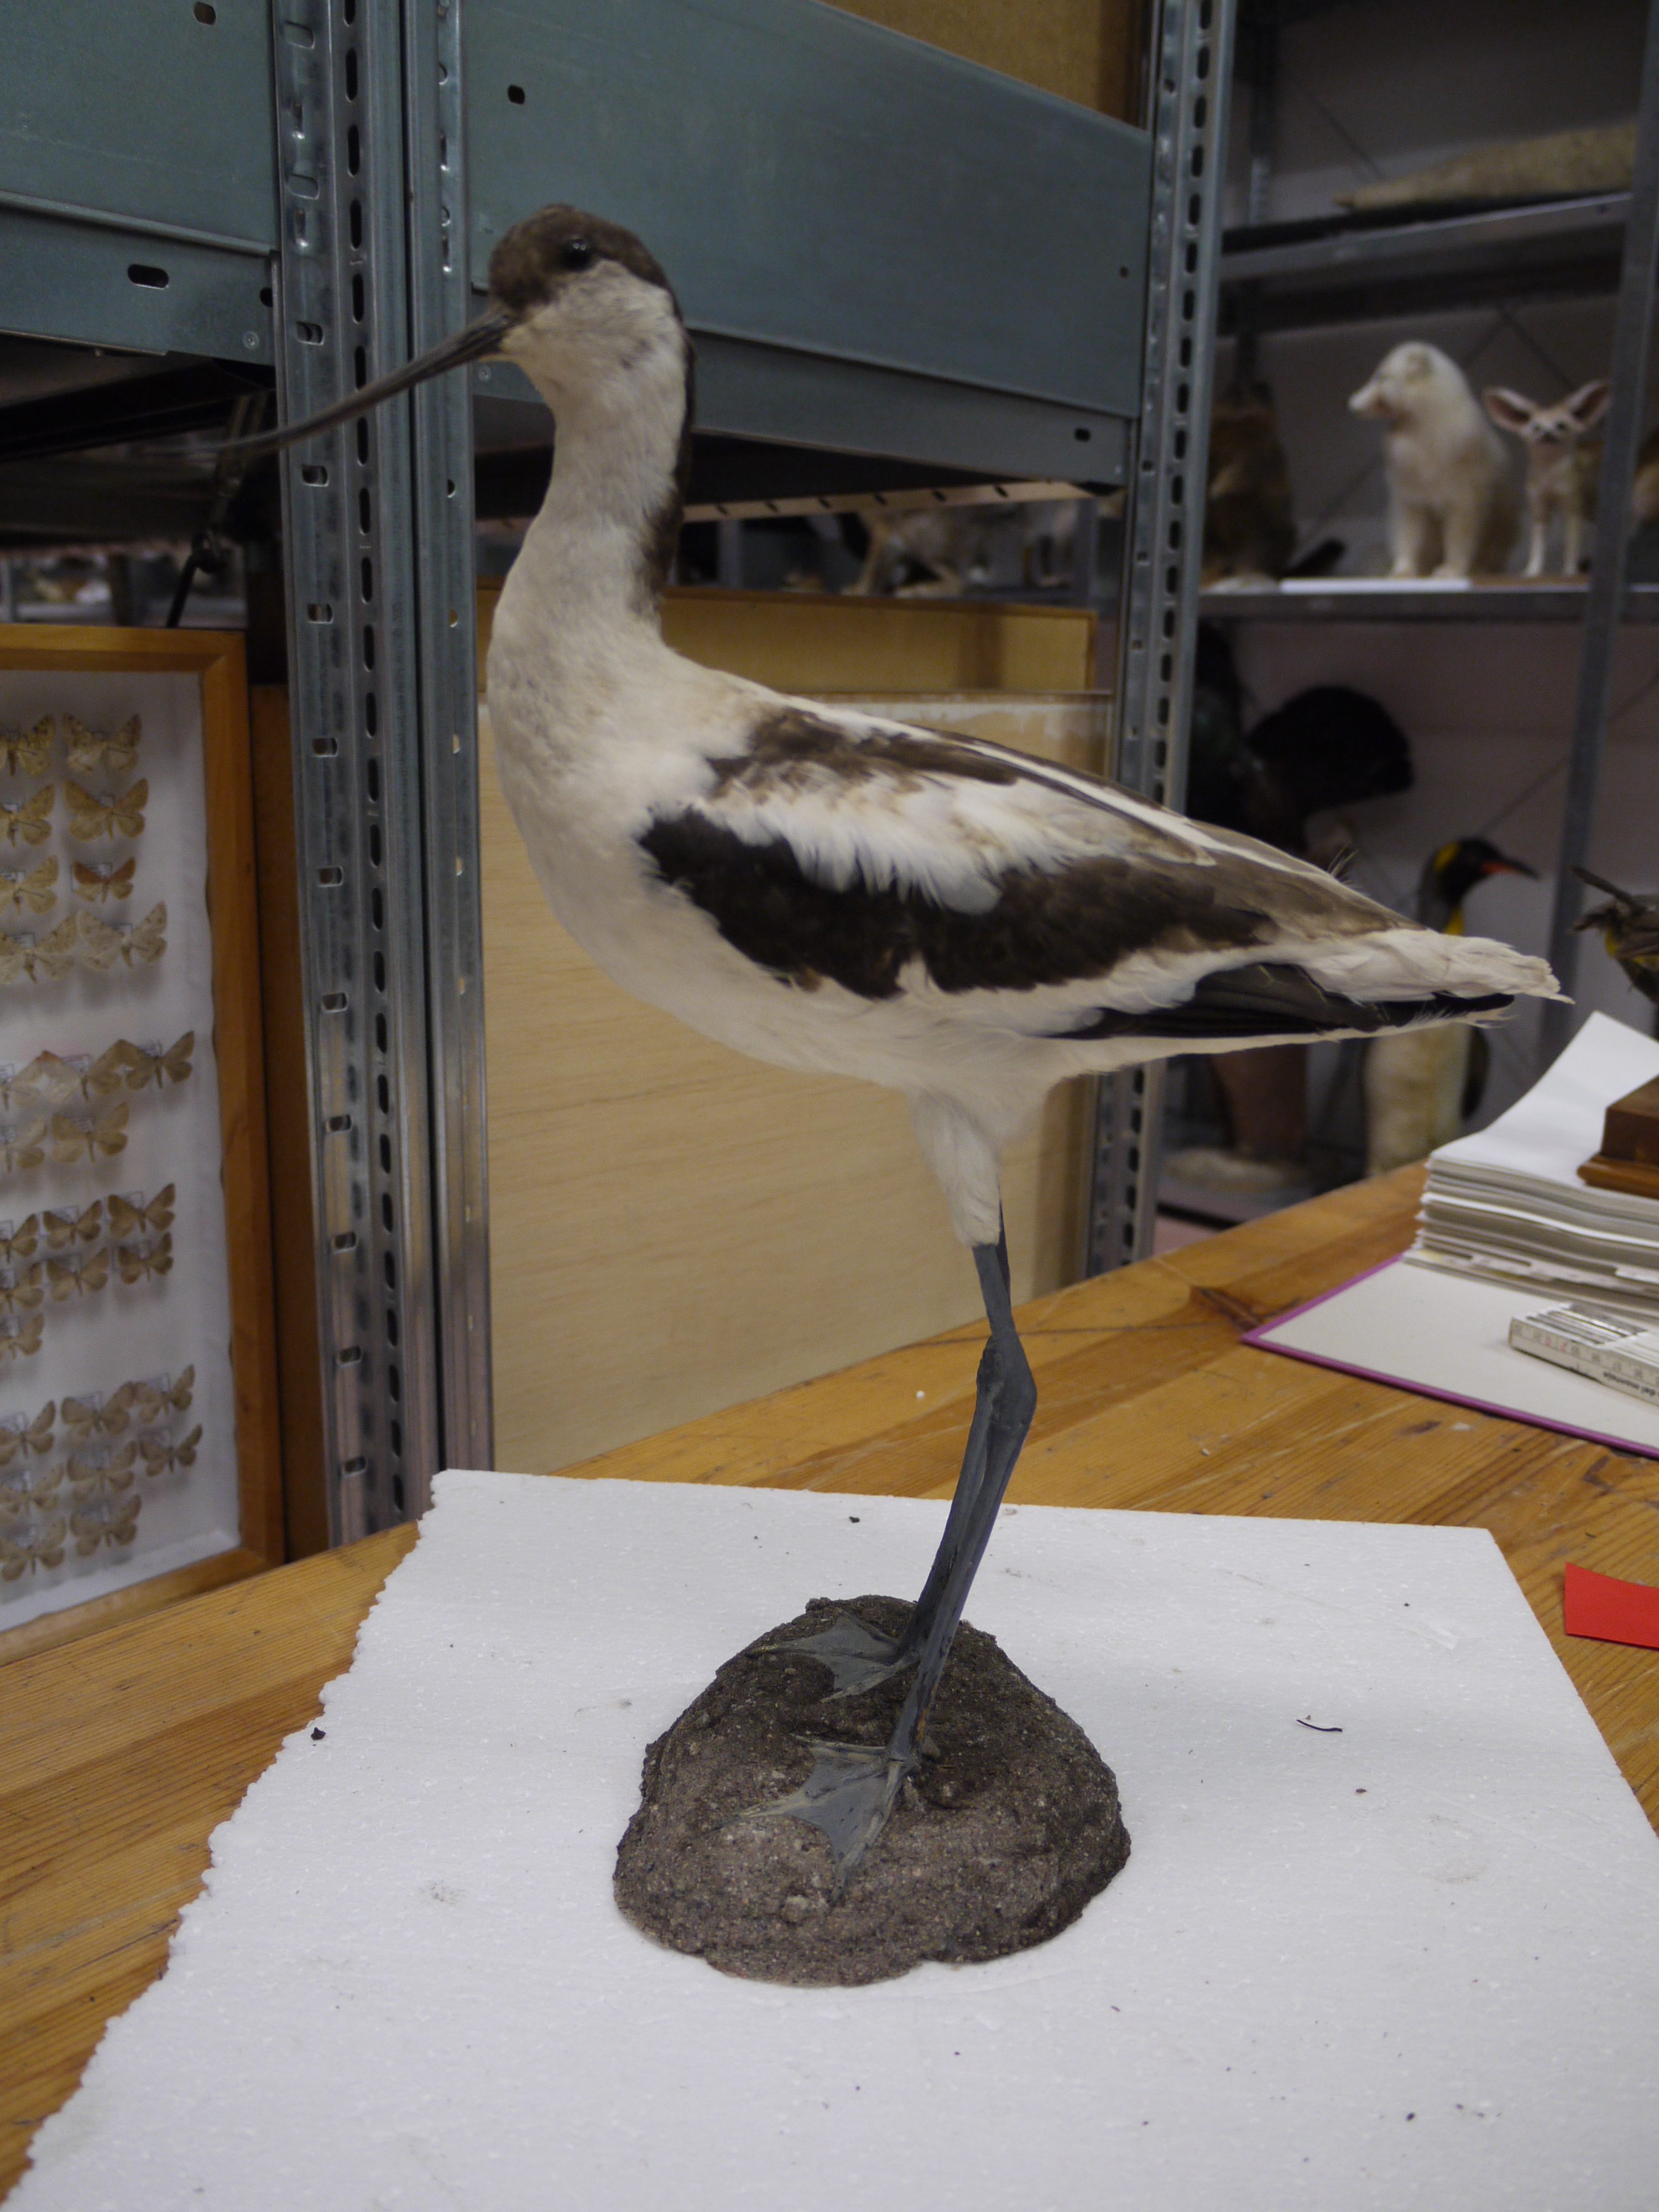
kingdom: Animalia
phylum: Chordata
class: Aves
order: Charadriiformes
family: Recurvirostridae
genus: Recurvirostra
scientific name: Recurvirostra avosetta
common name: Pied avocet
